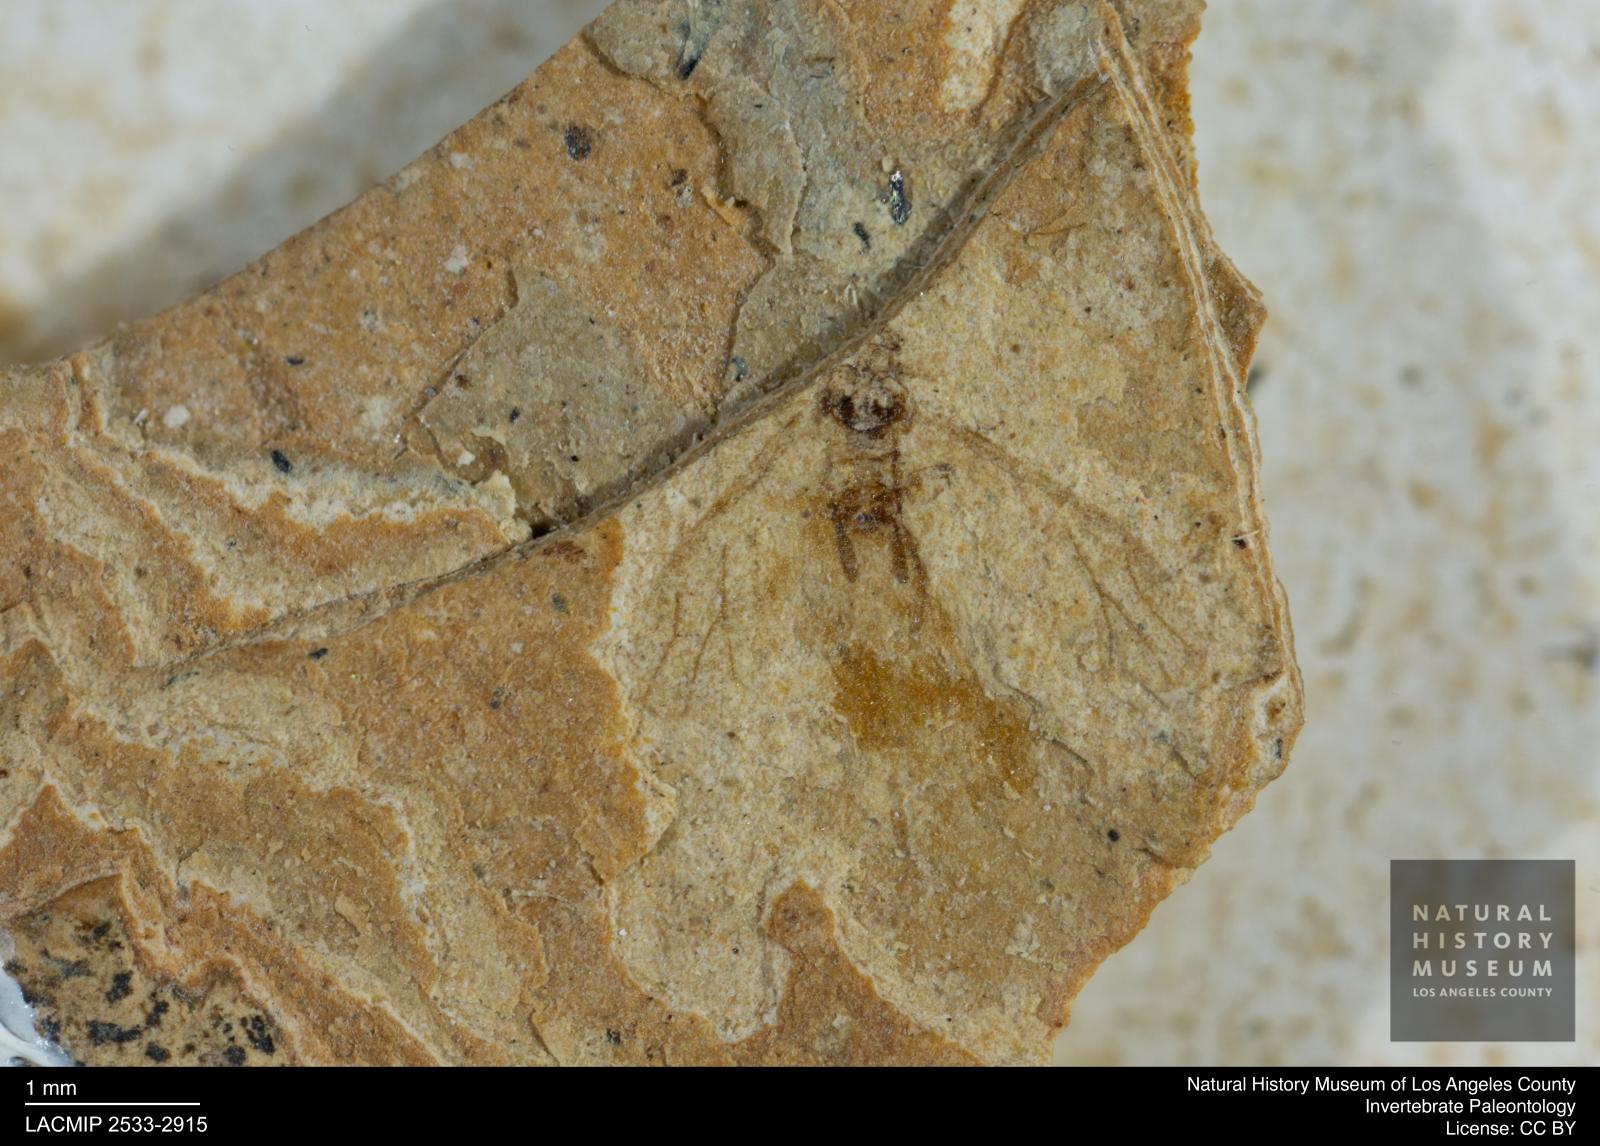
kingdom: Animalia
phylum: Arthropoda
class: Insecta
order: Hemiptera
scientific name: Hemiptera
